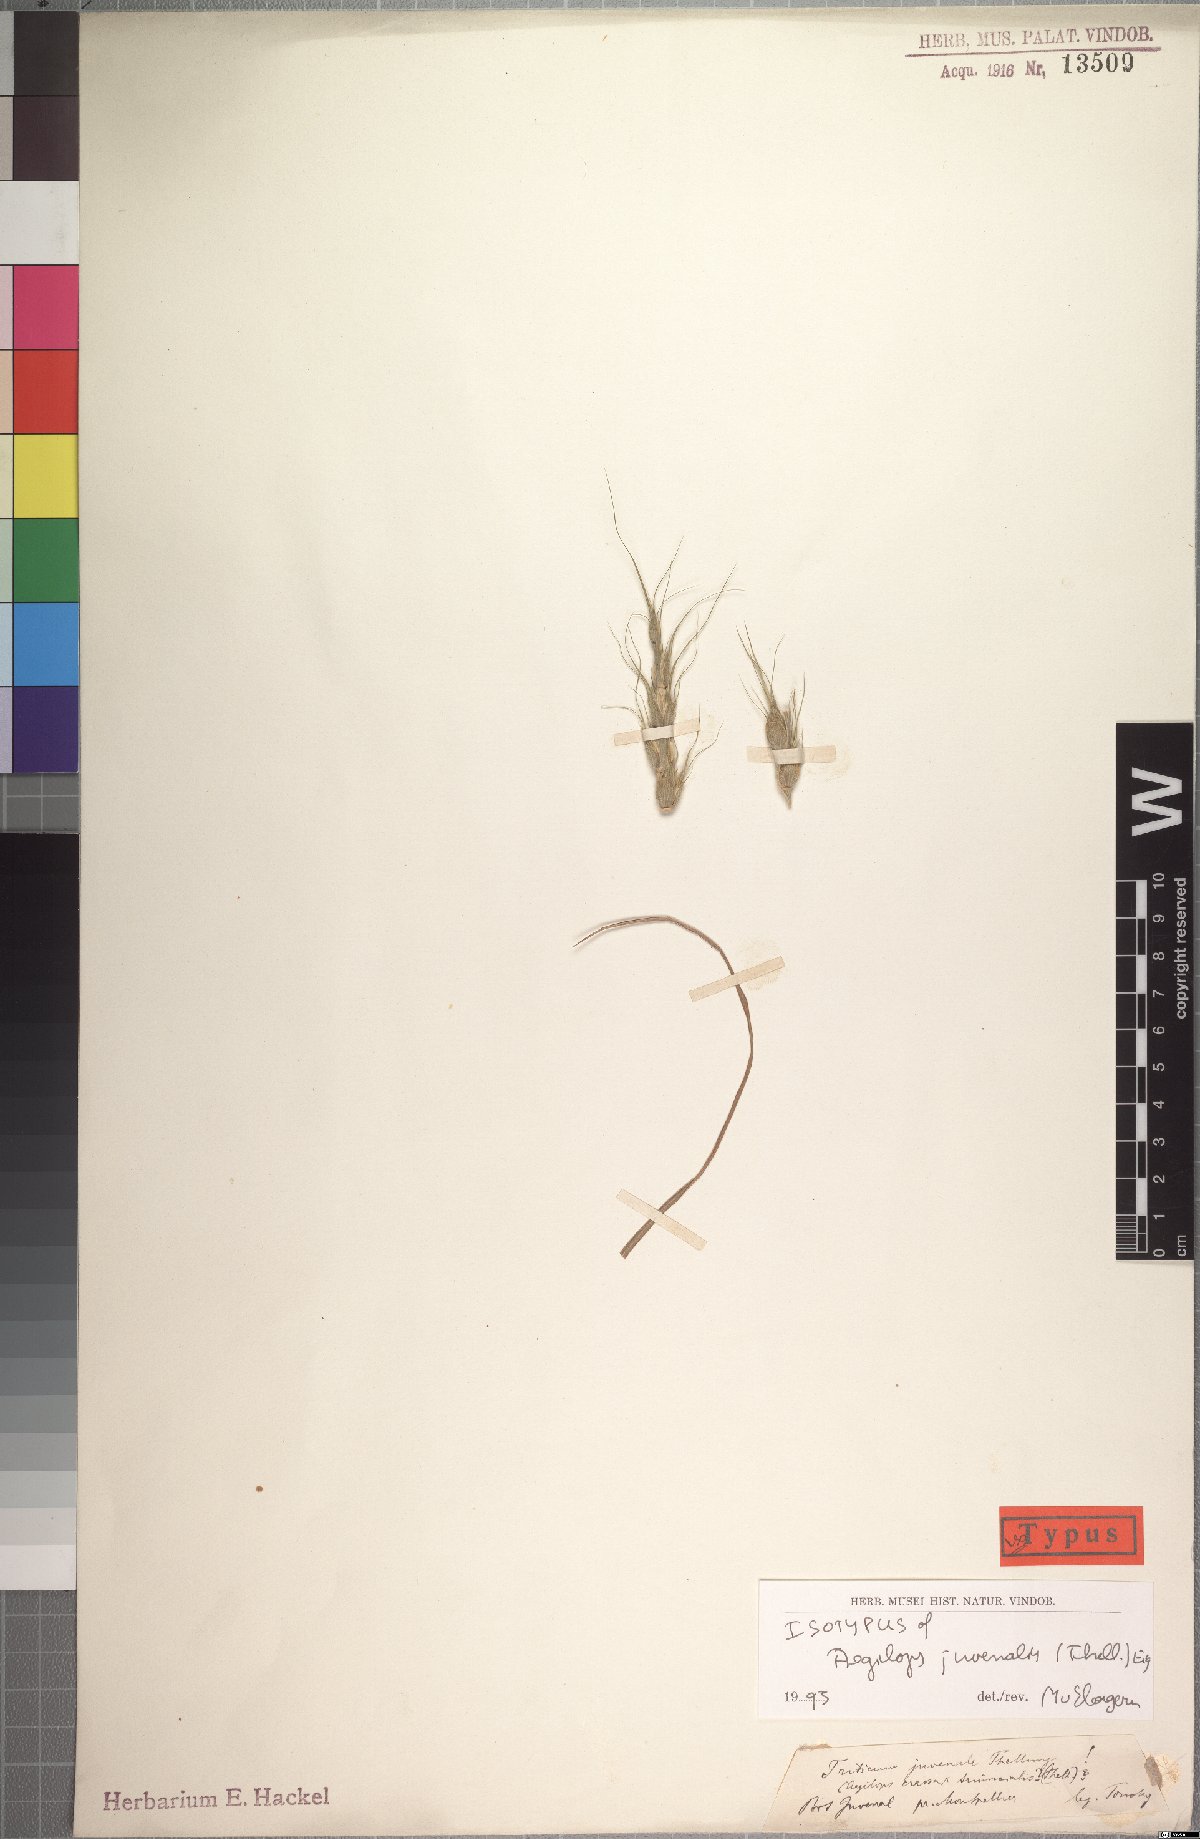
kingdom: Plantae
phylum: Tracheophyta
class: Liliopsida
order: Poales
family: Poaceae
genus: Aegilops
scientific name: Aegilops juvenalis
